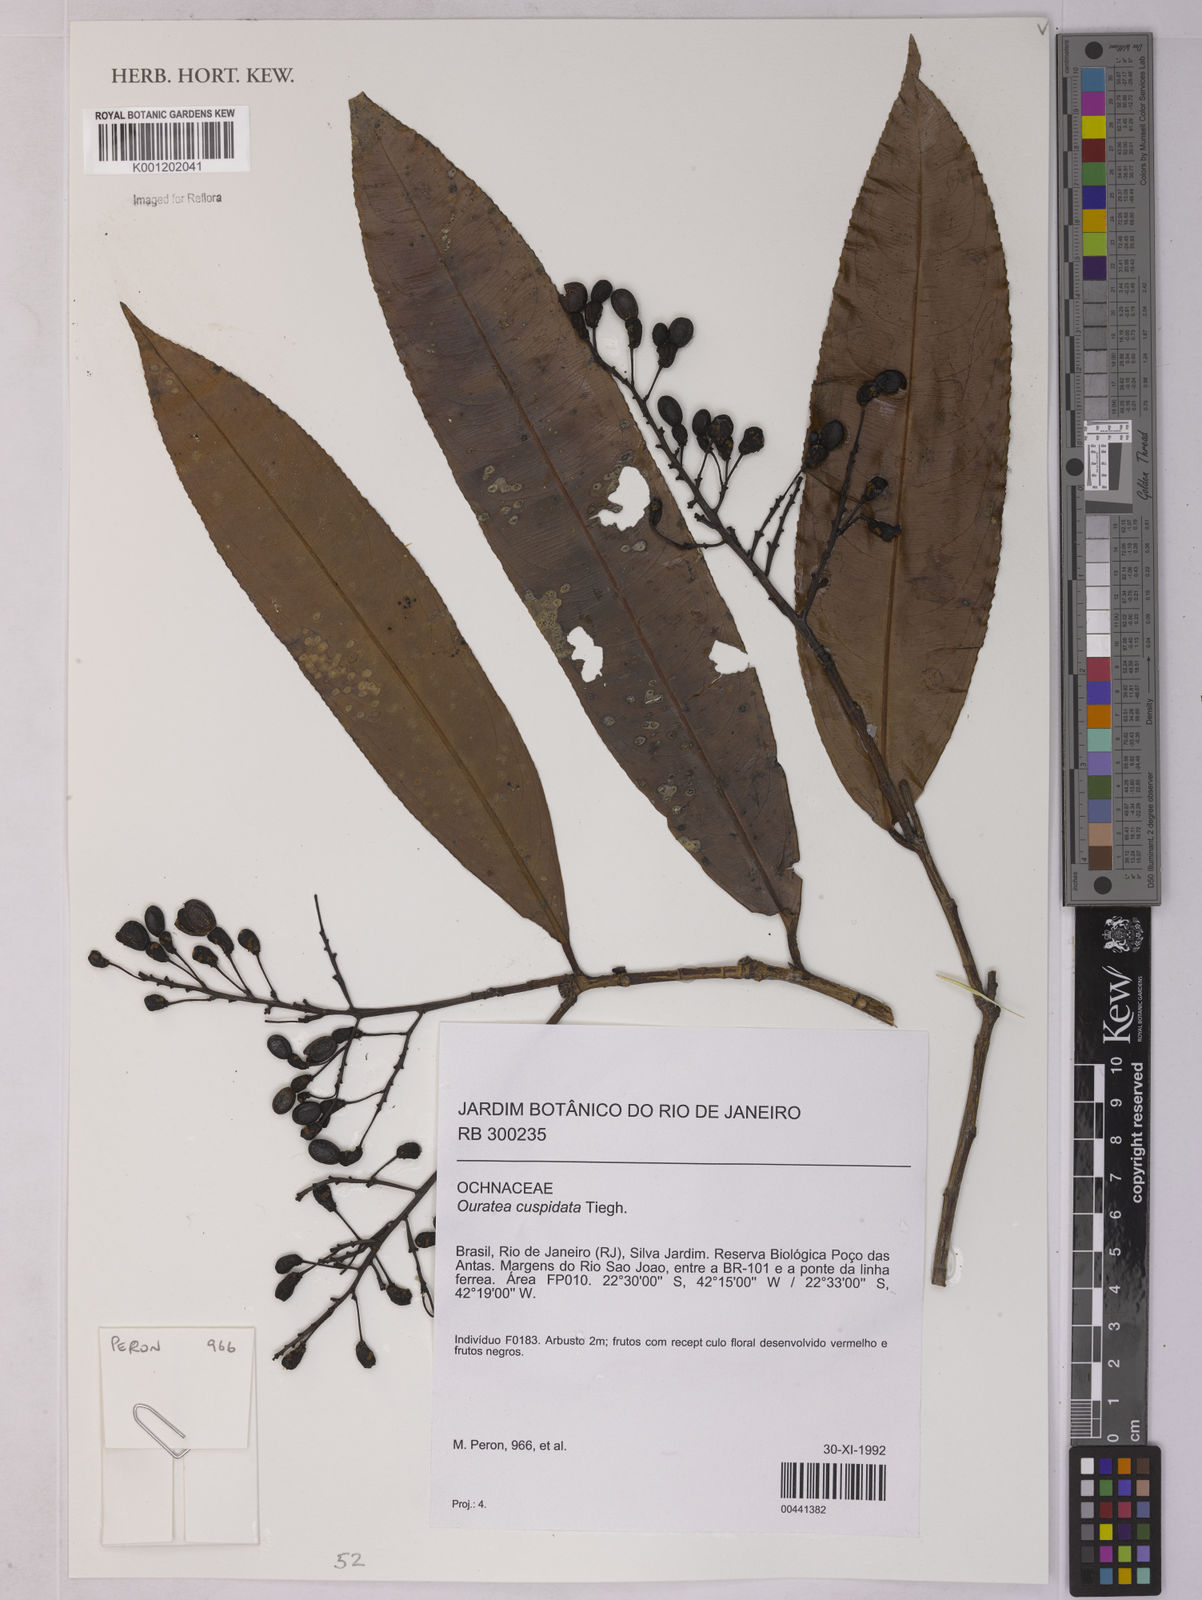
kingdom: Plantae
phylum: Tracheophyta
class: Magnoliopsida
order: Malpighiales
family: Ochnaceae
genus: Ouratea
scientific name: Ouratea cuspidata
